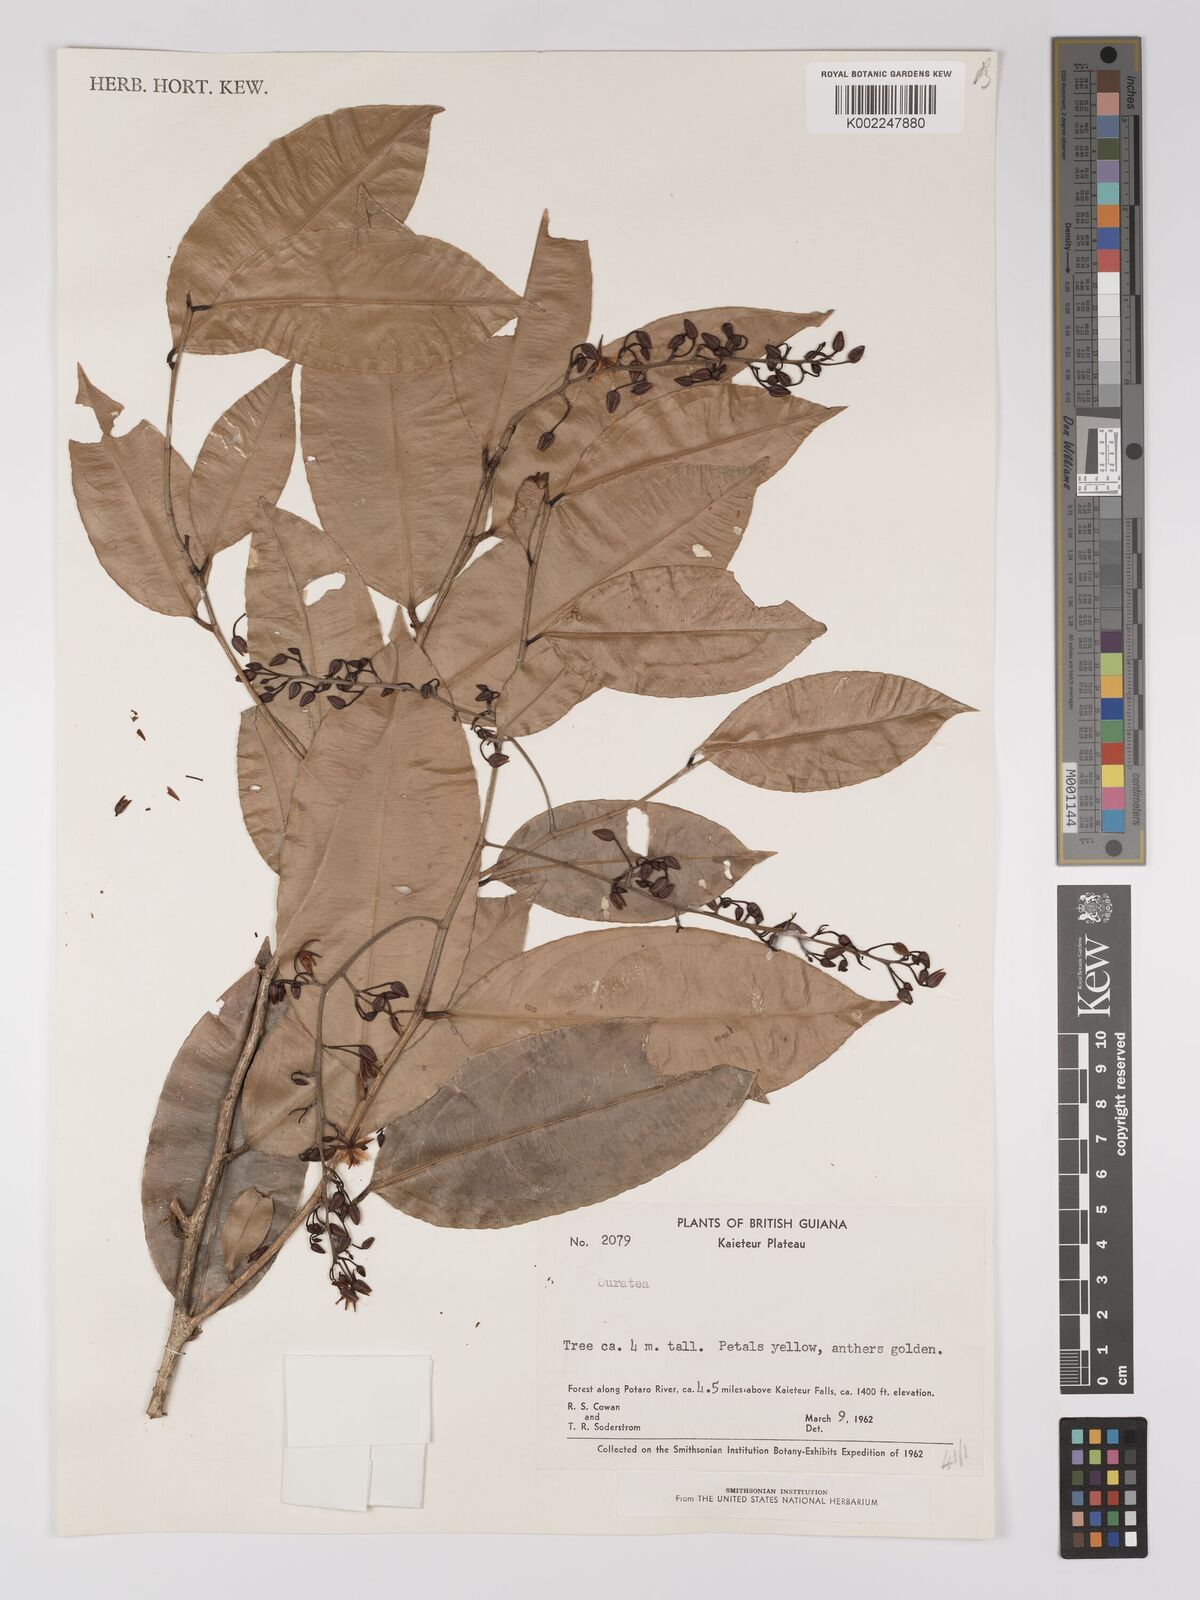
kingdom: Plantae
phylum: Tracheophyta
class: Magnoliopsida
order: Malpighiales
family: Ochnaceae
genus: Ouratea
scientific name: Ouratea
